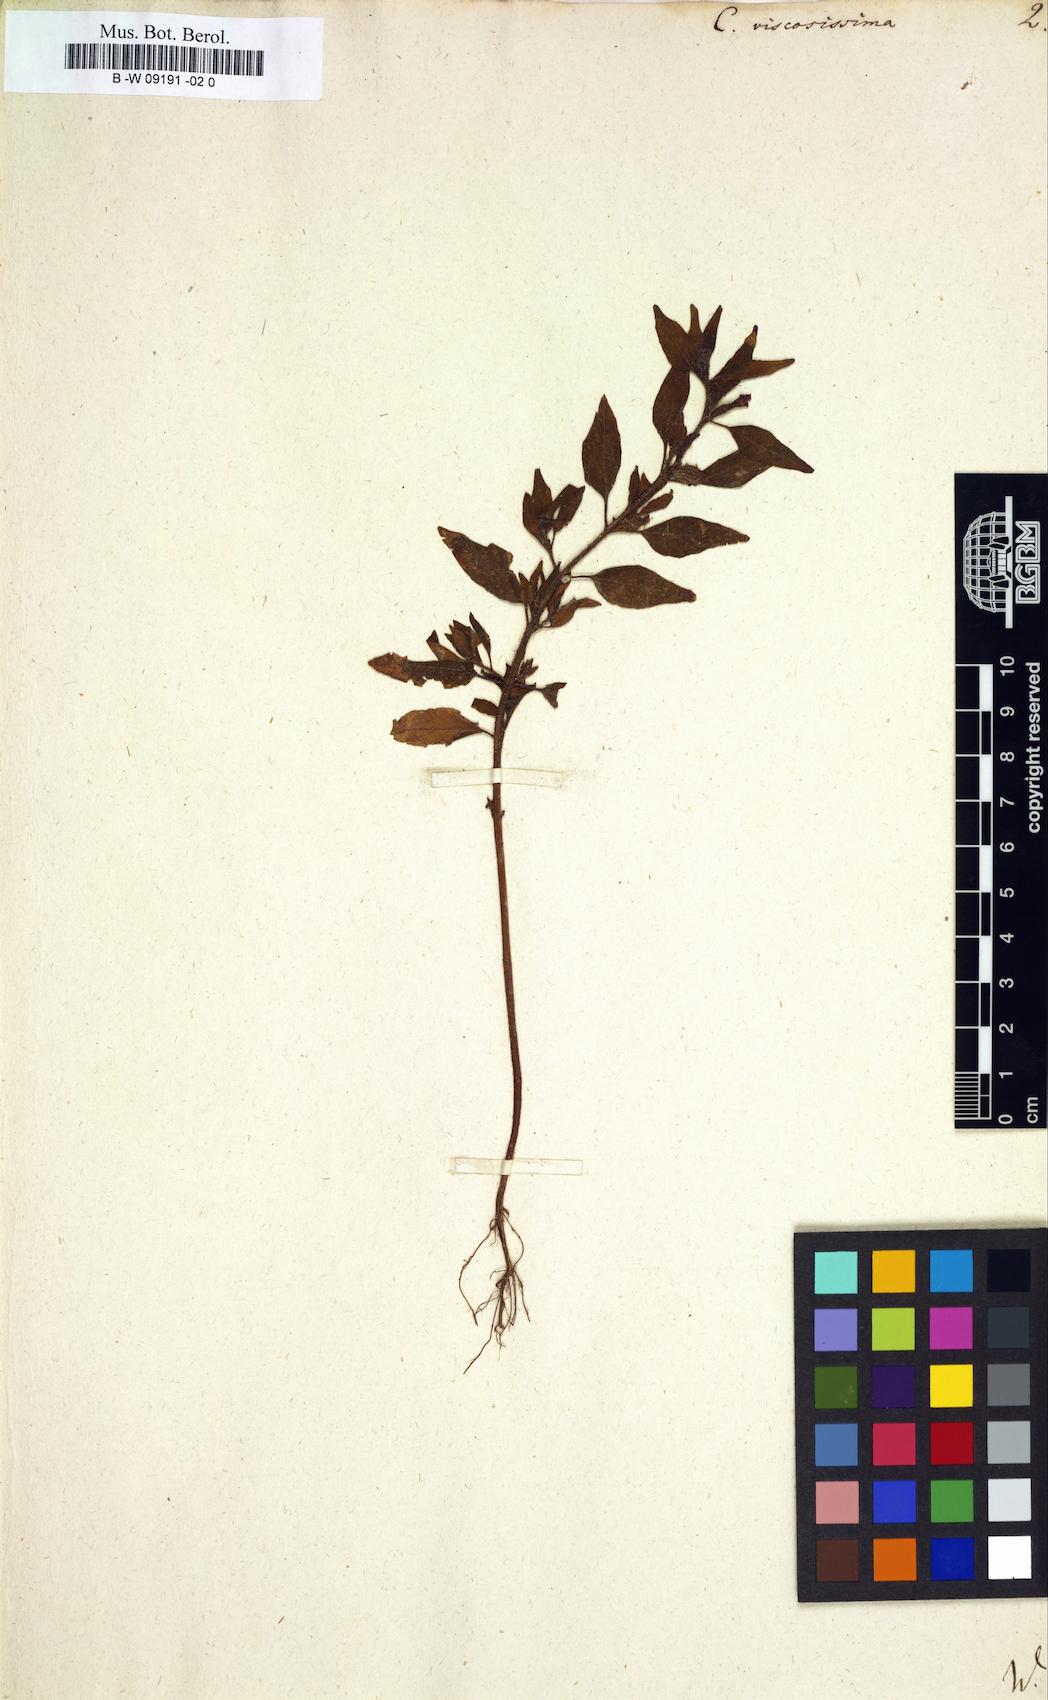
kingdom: Plantae
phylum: Tracheophyta
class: Magnoliopsida
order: Myrtales
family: Lythraceae
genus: Cuphea
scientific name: Cuphea viscosissima
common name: Clammy cuphea
